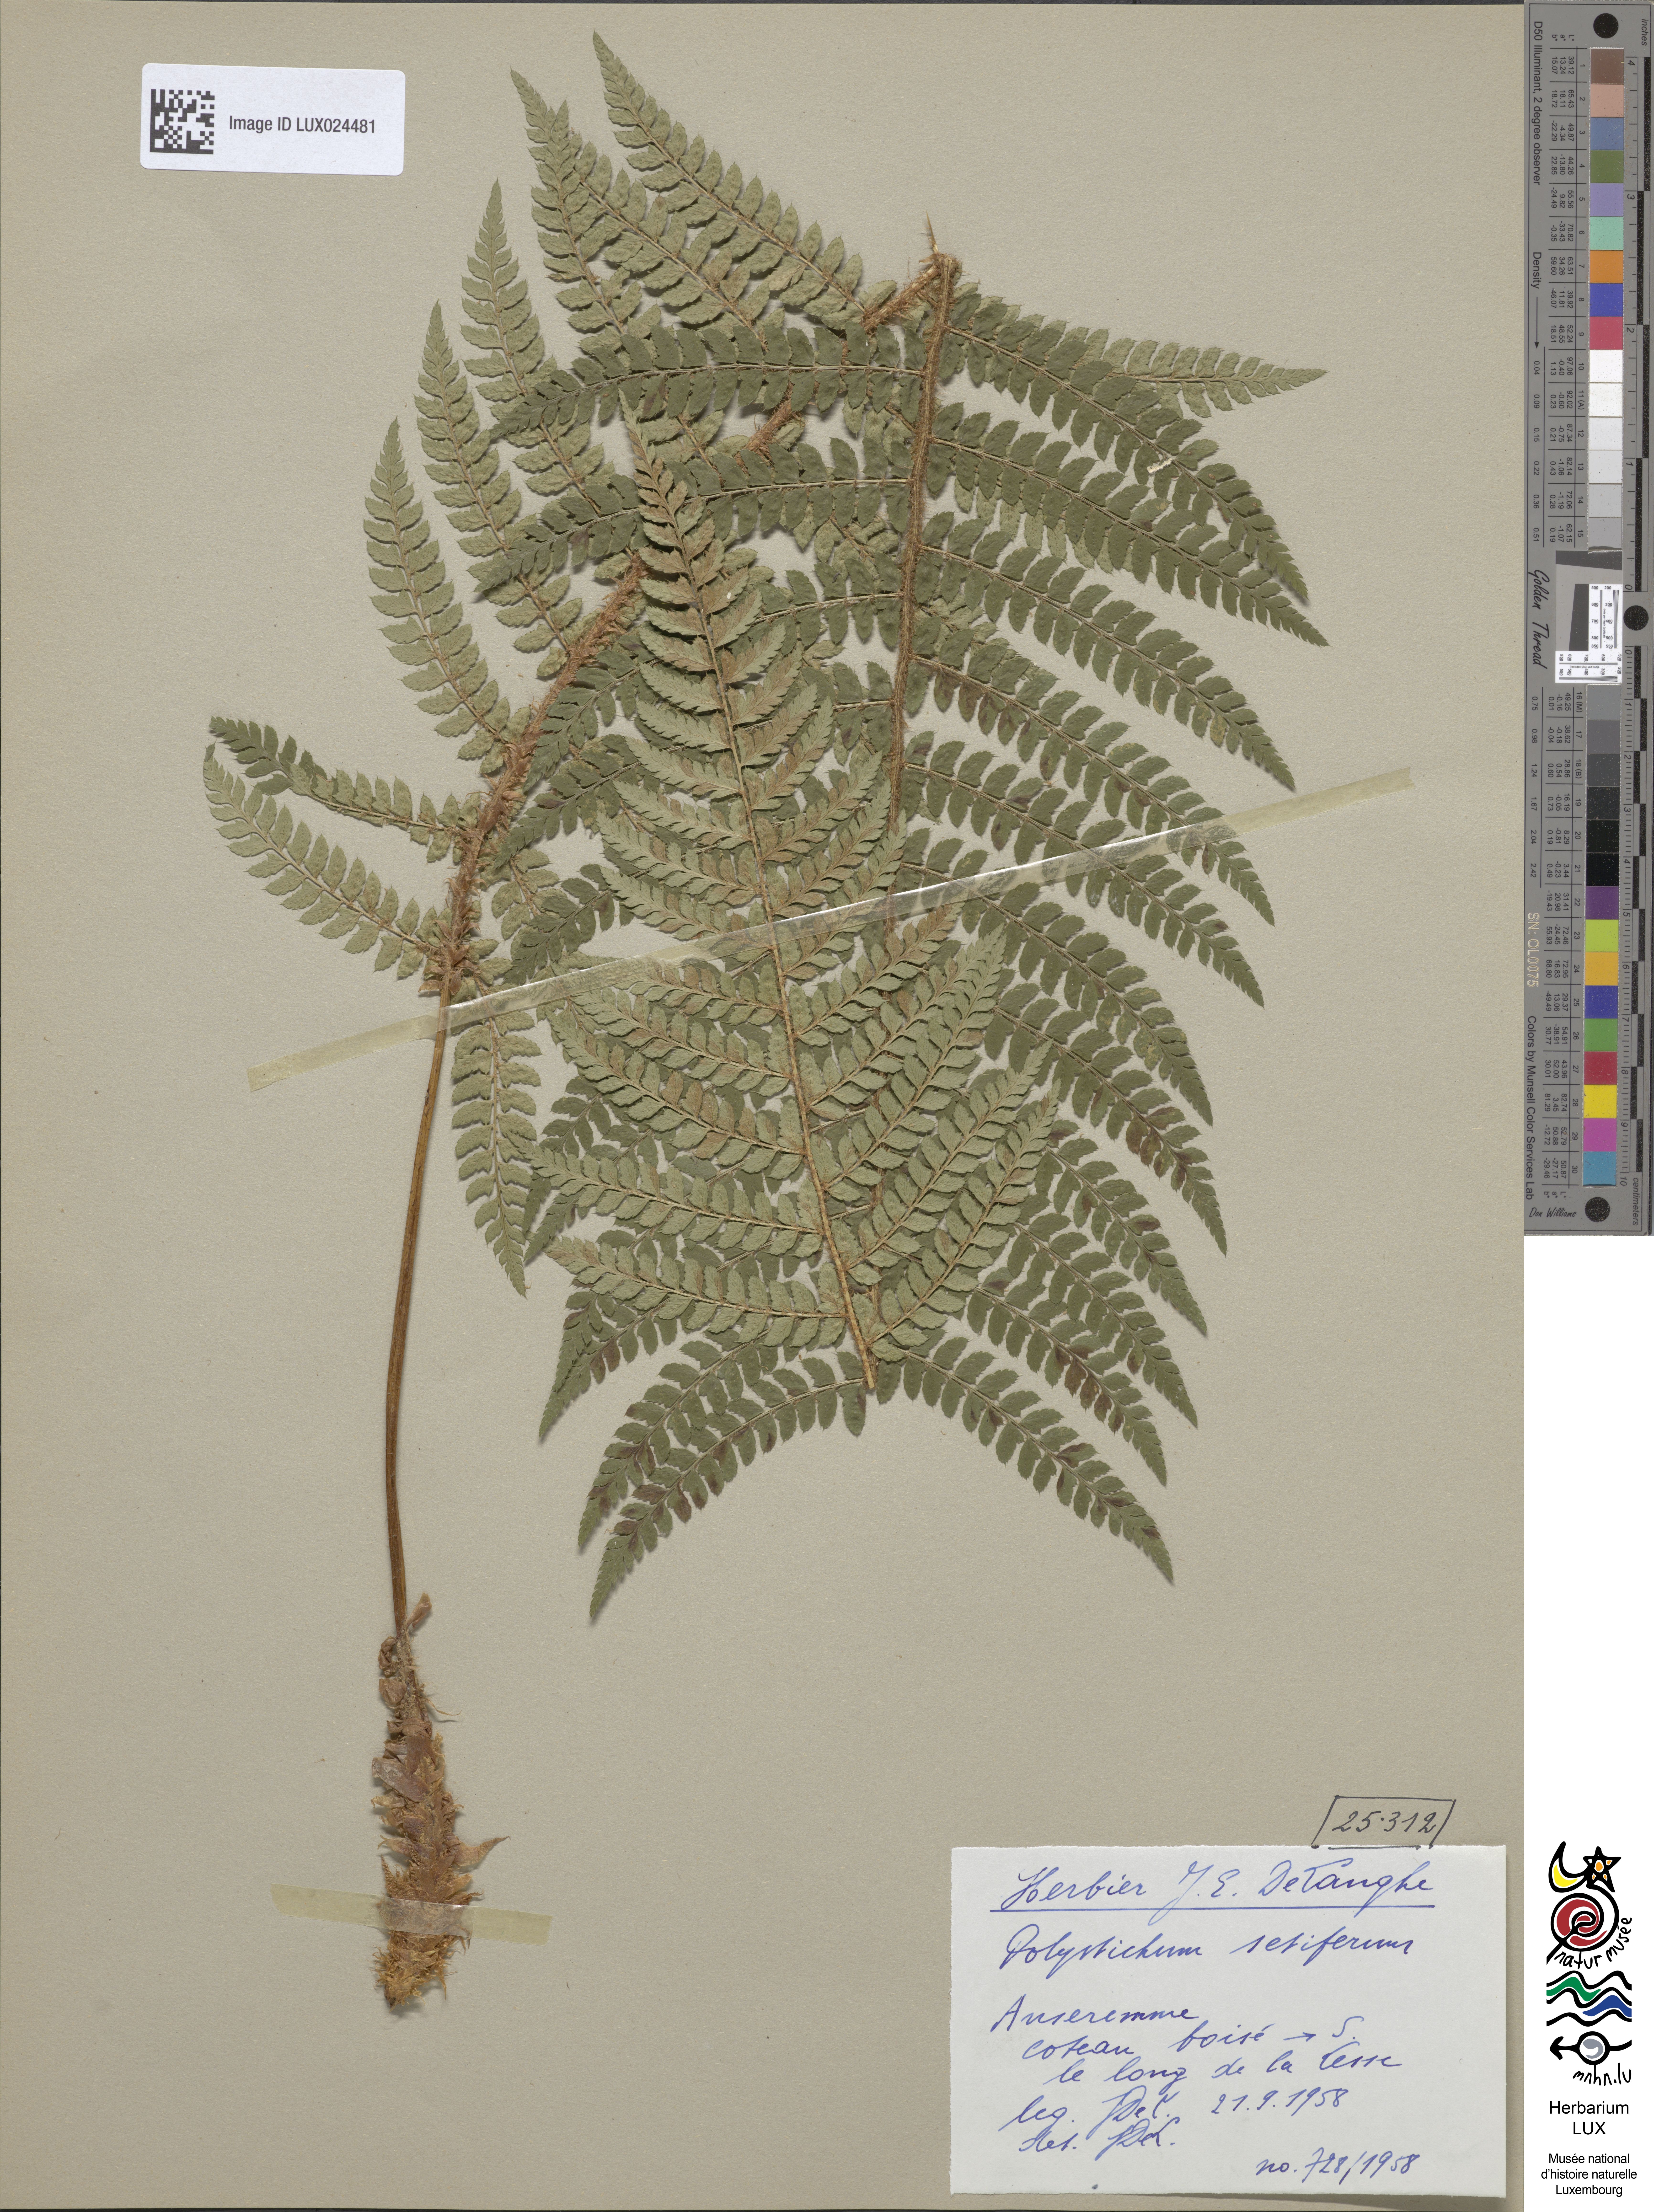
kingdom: Plantae
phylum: Tracheophyta
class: Polypodiopsida
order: Polypodiales
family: Dryopteridaceae
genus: Polystichum
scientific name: Polystichum setiferum
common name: Soft shield-fern
